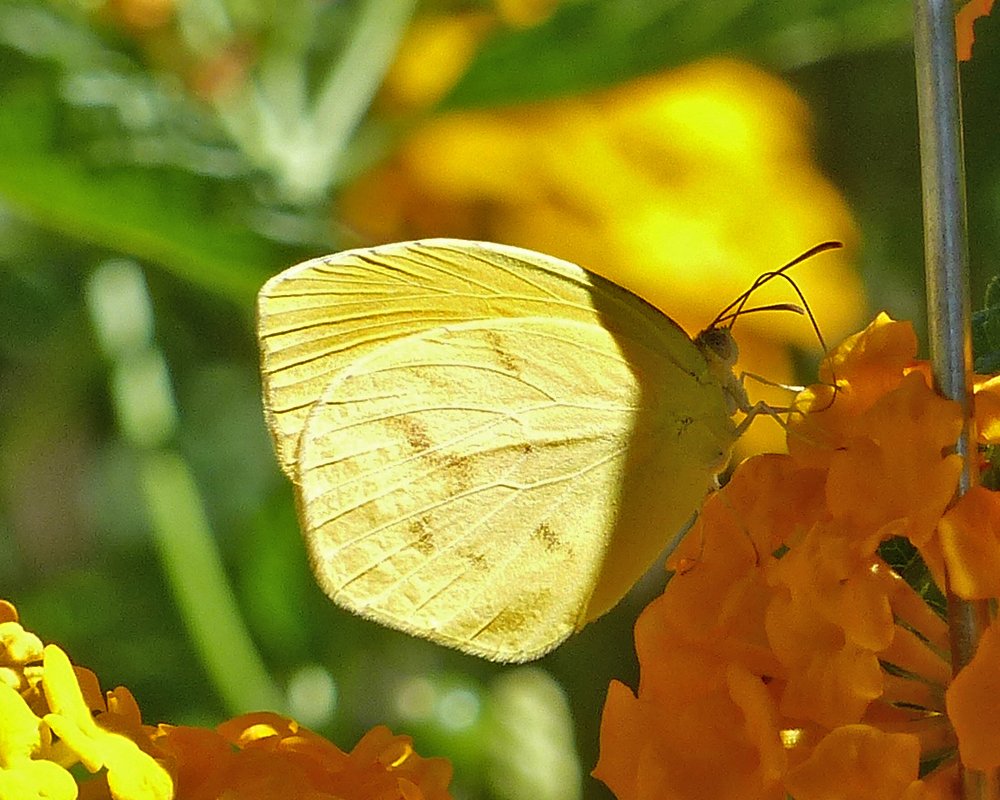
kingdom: Animalia
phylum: Arthropoda
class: Insecta
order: Lepidoptera
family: Pieridae
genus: Pyrisitia
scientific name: Pyrisitia proterpia
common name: Tailed Orange
